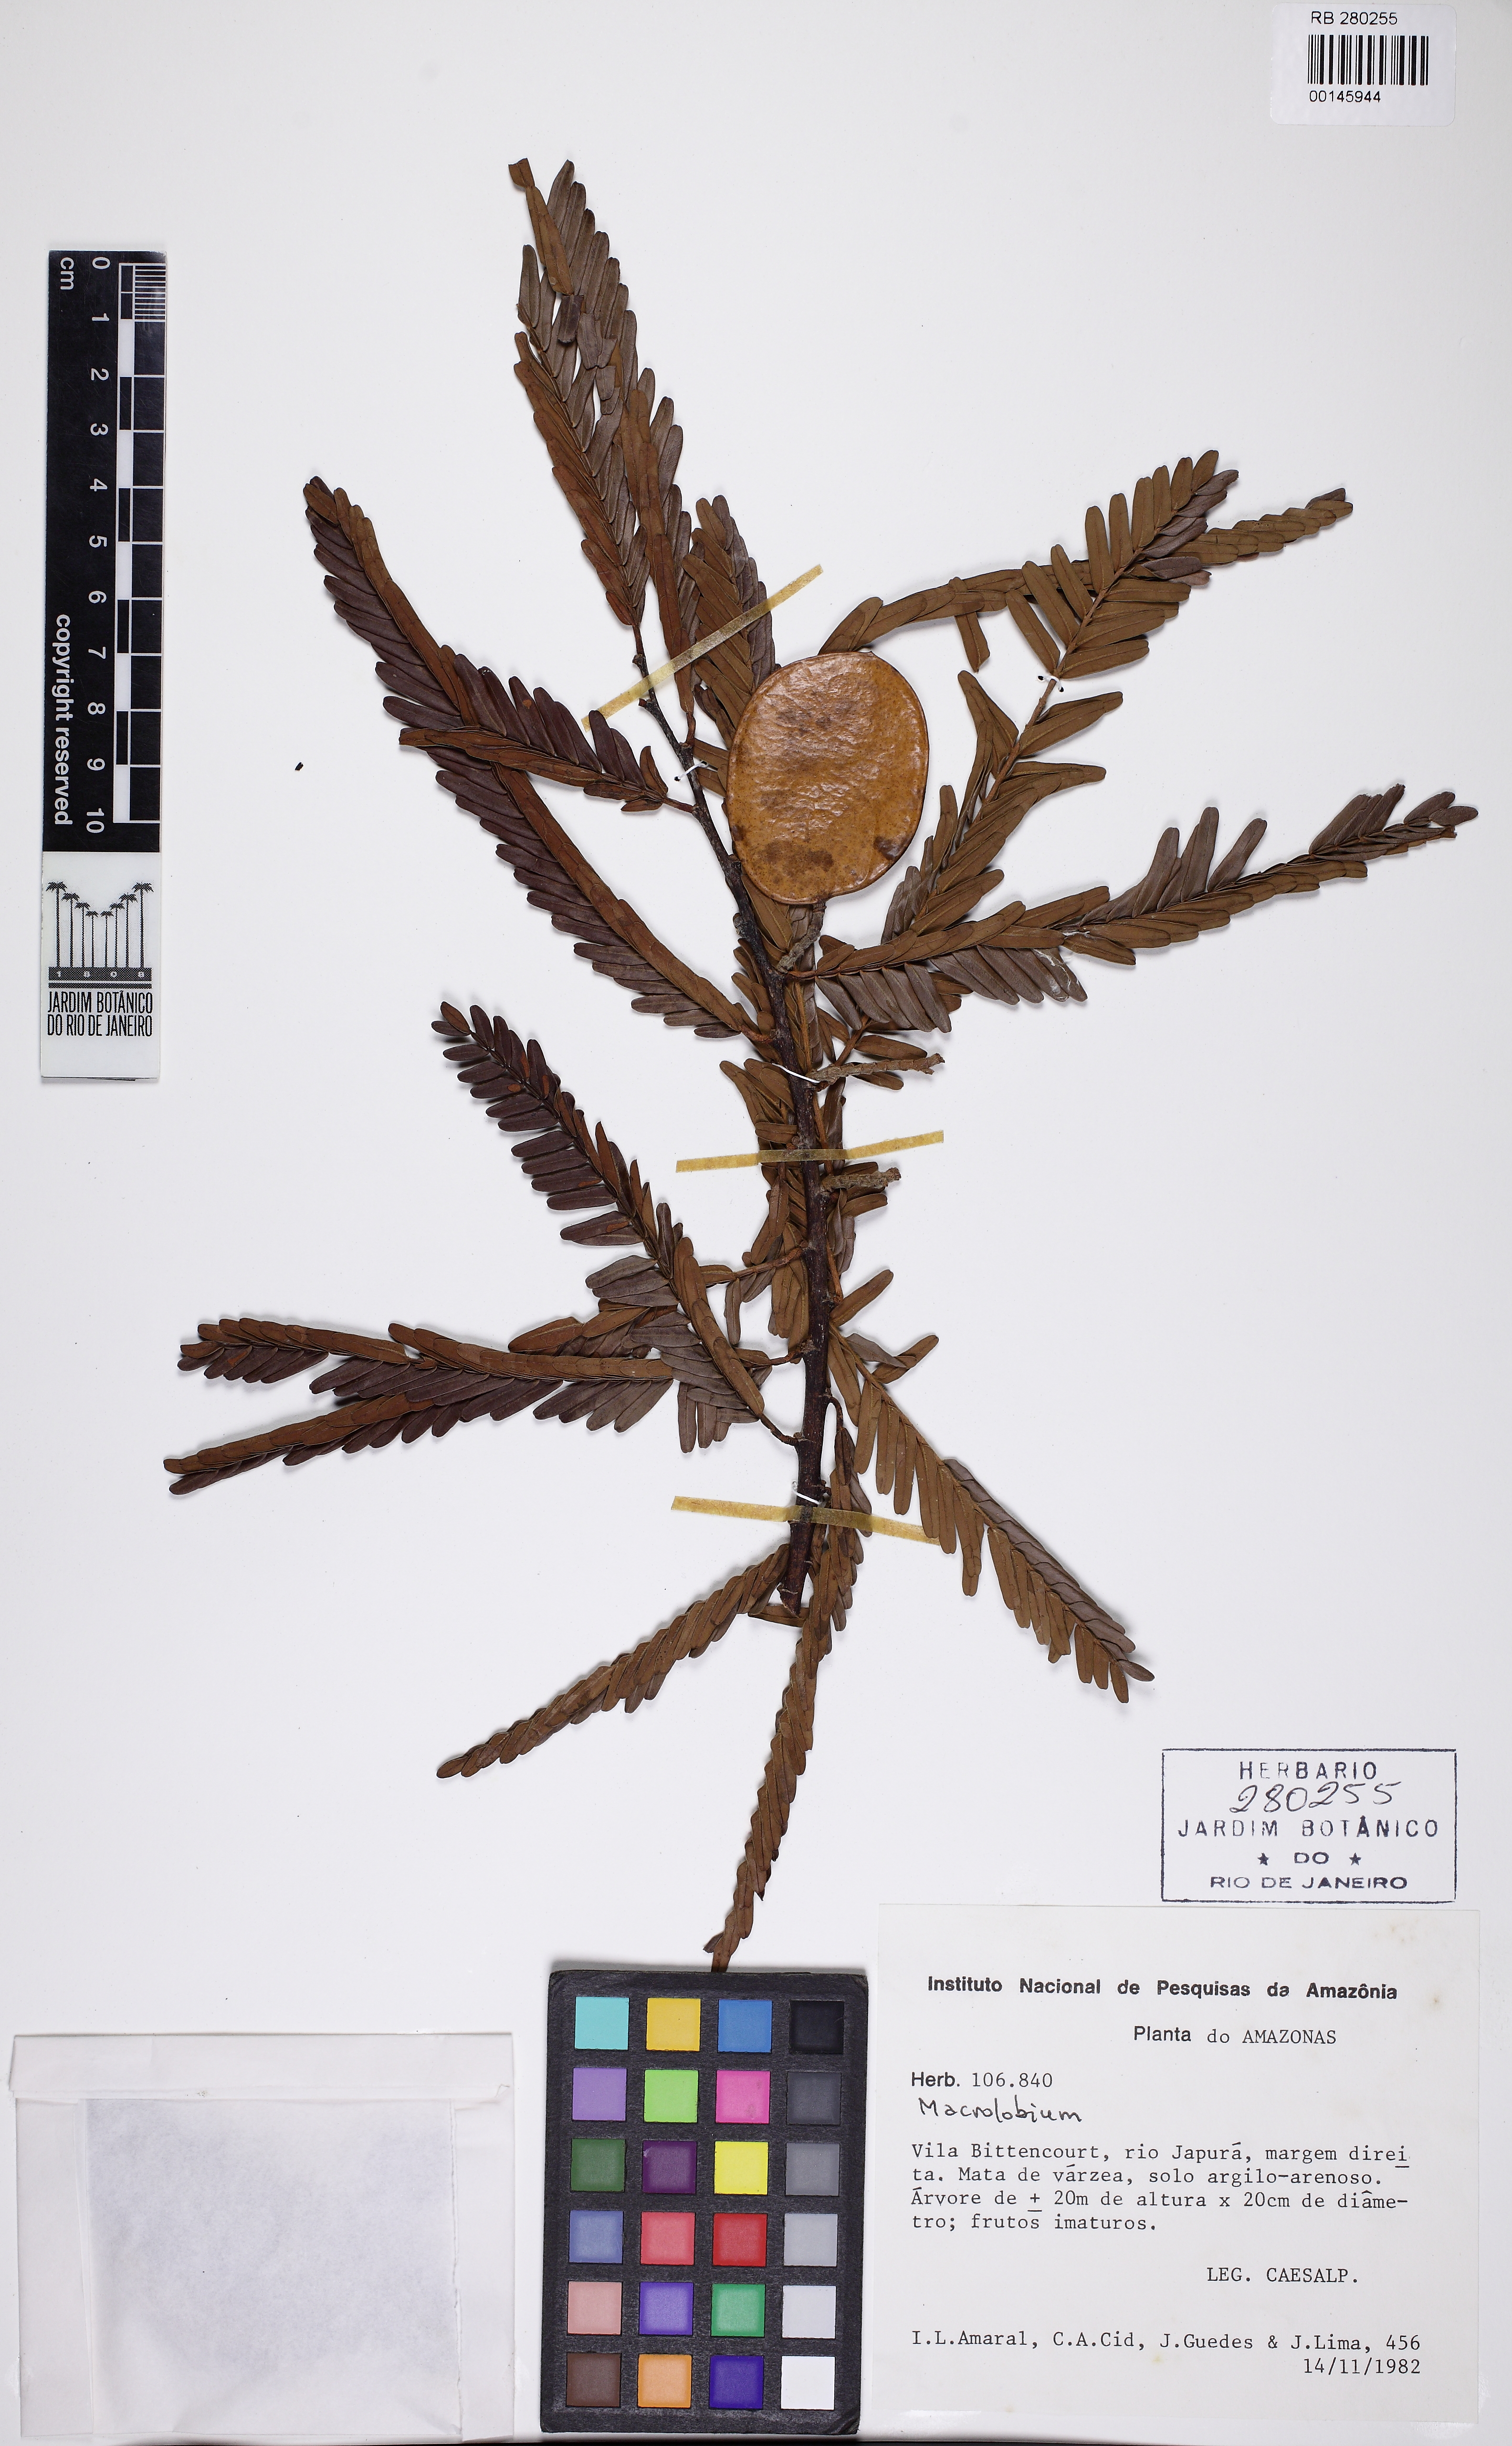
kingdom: Plantae
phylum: Tracheophyta
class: Magnoliopsida
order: Fabales
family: Fabaceae
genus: Macrolobium
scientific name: Macrolobium
